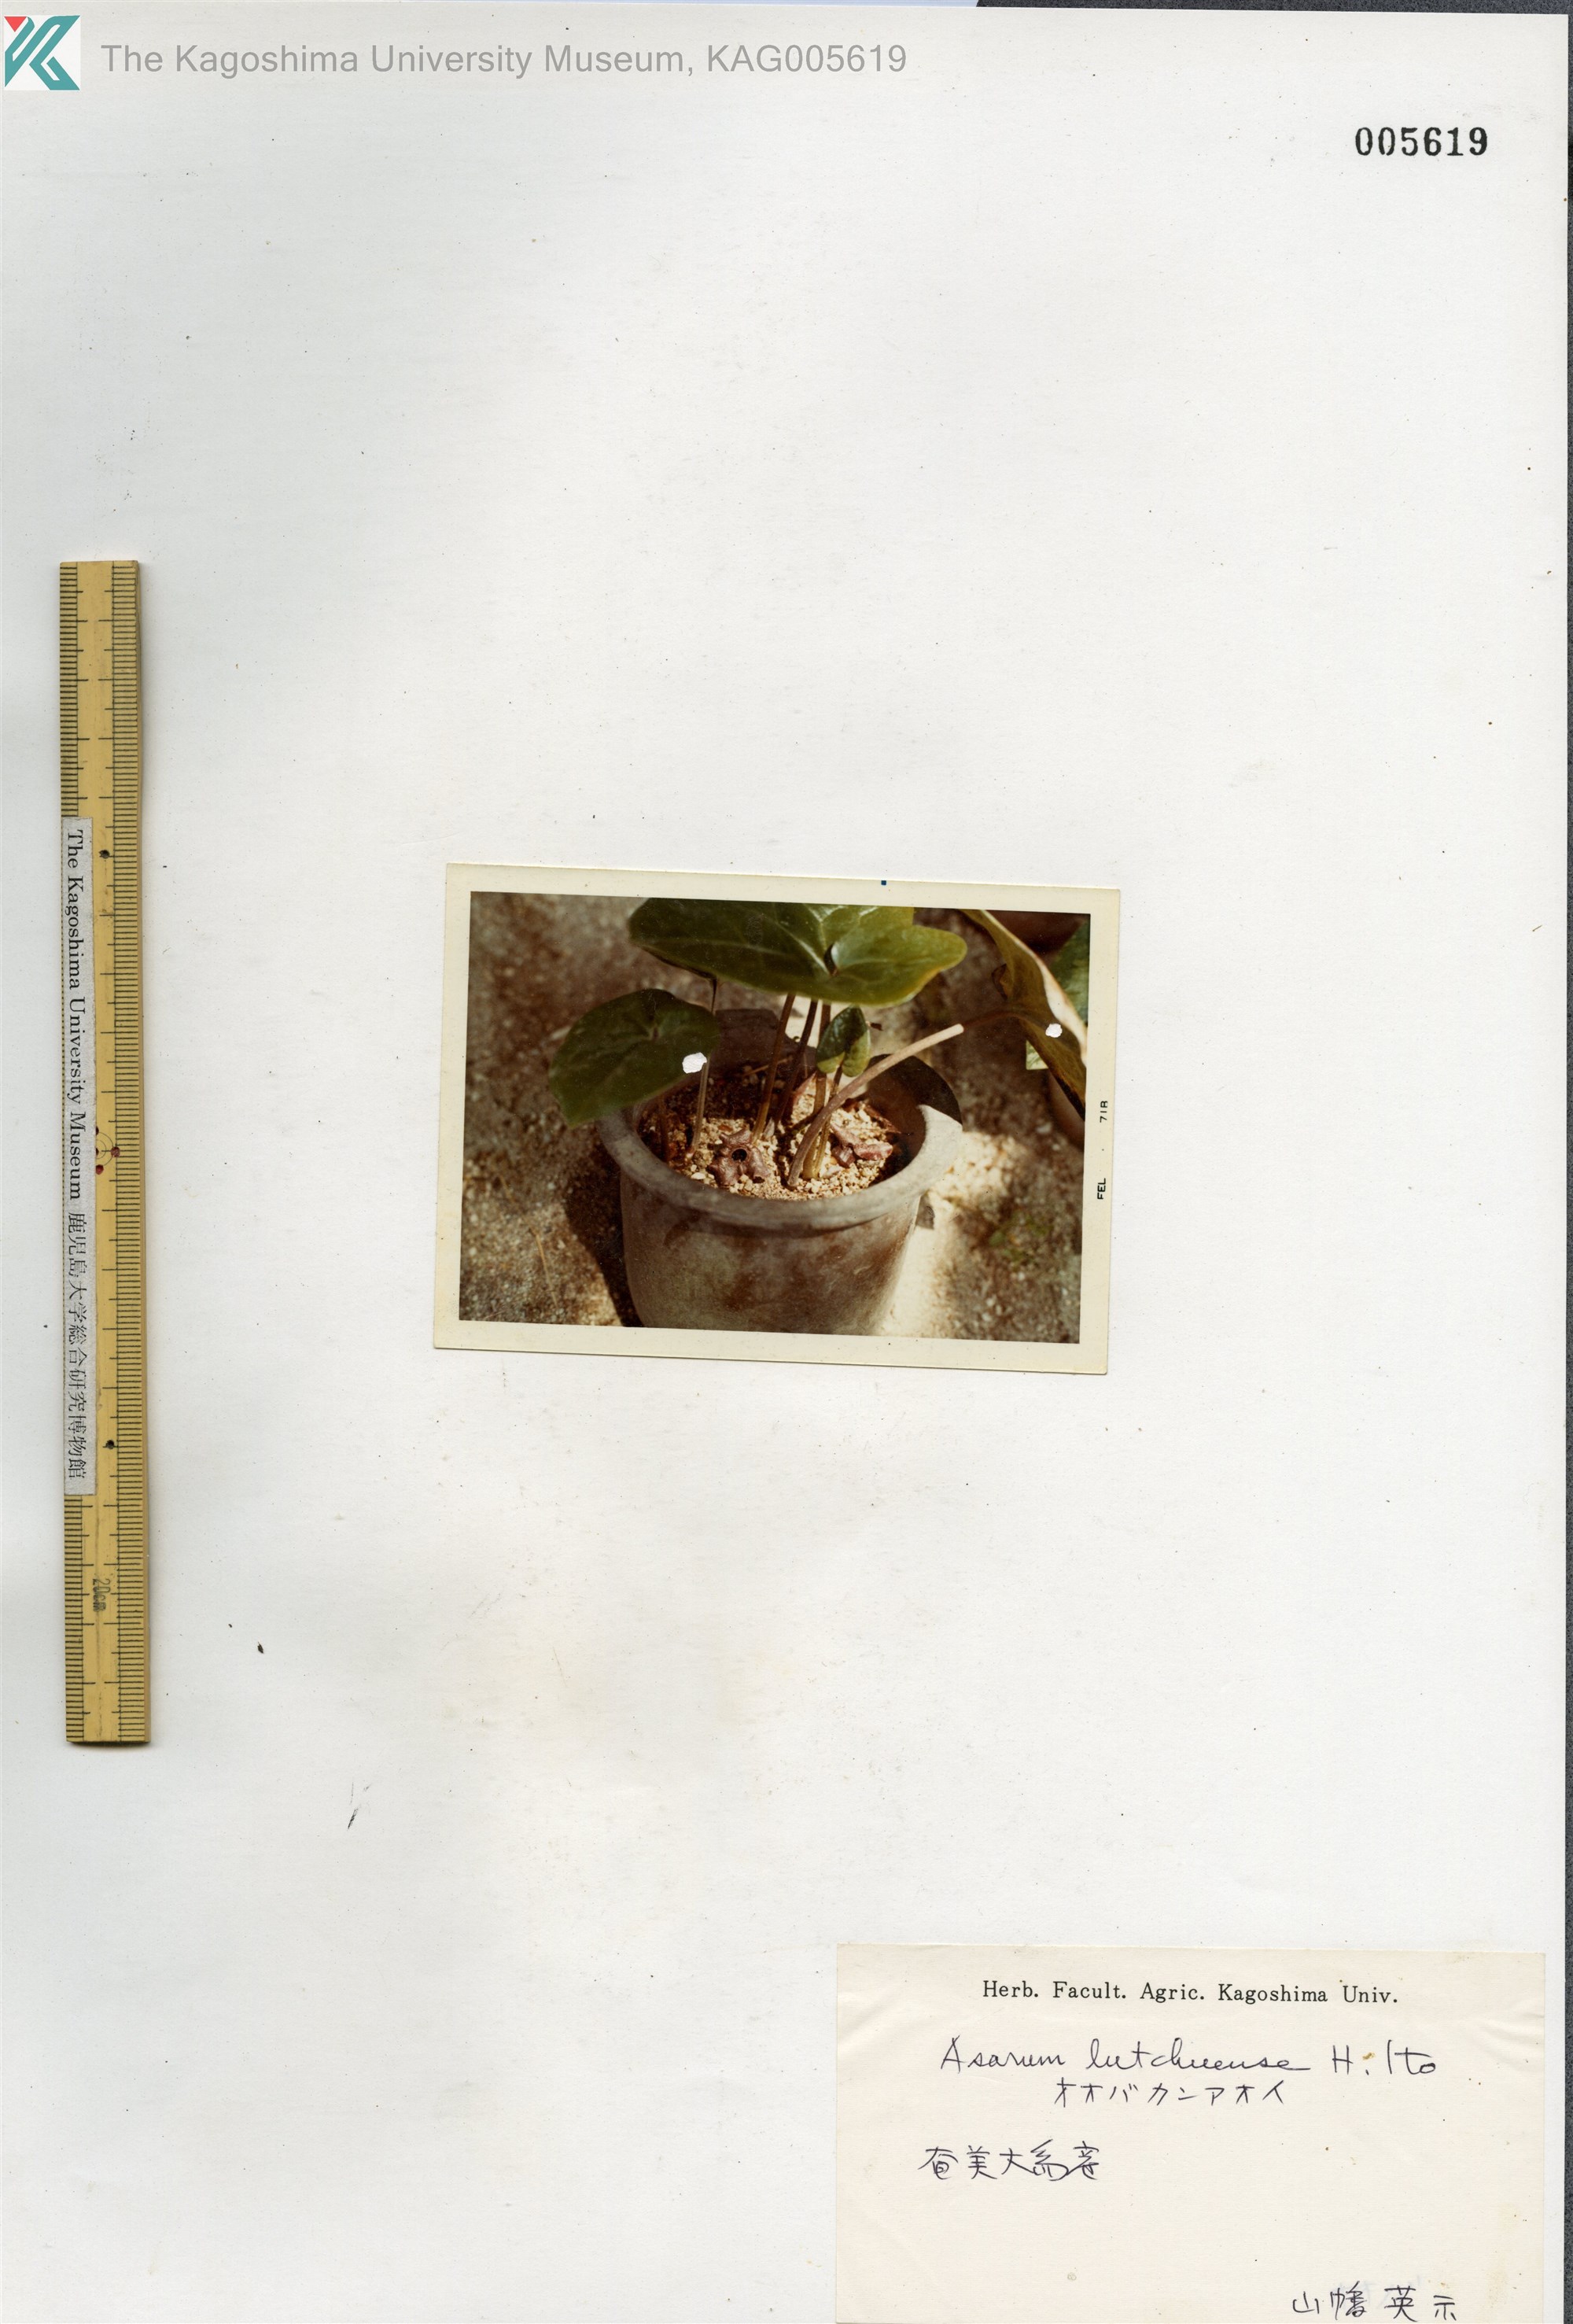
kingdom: Plantae
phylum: Tracheophyta
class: Magnoliopsida
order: Piperales
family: Aristolochiaceae
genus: Asarum
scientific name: Asarum lutchuense
